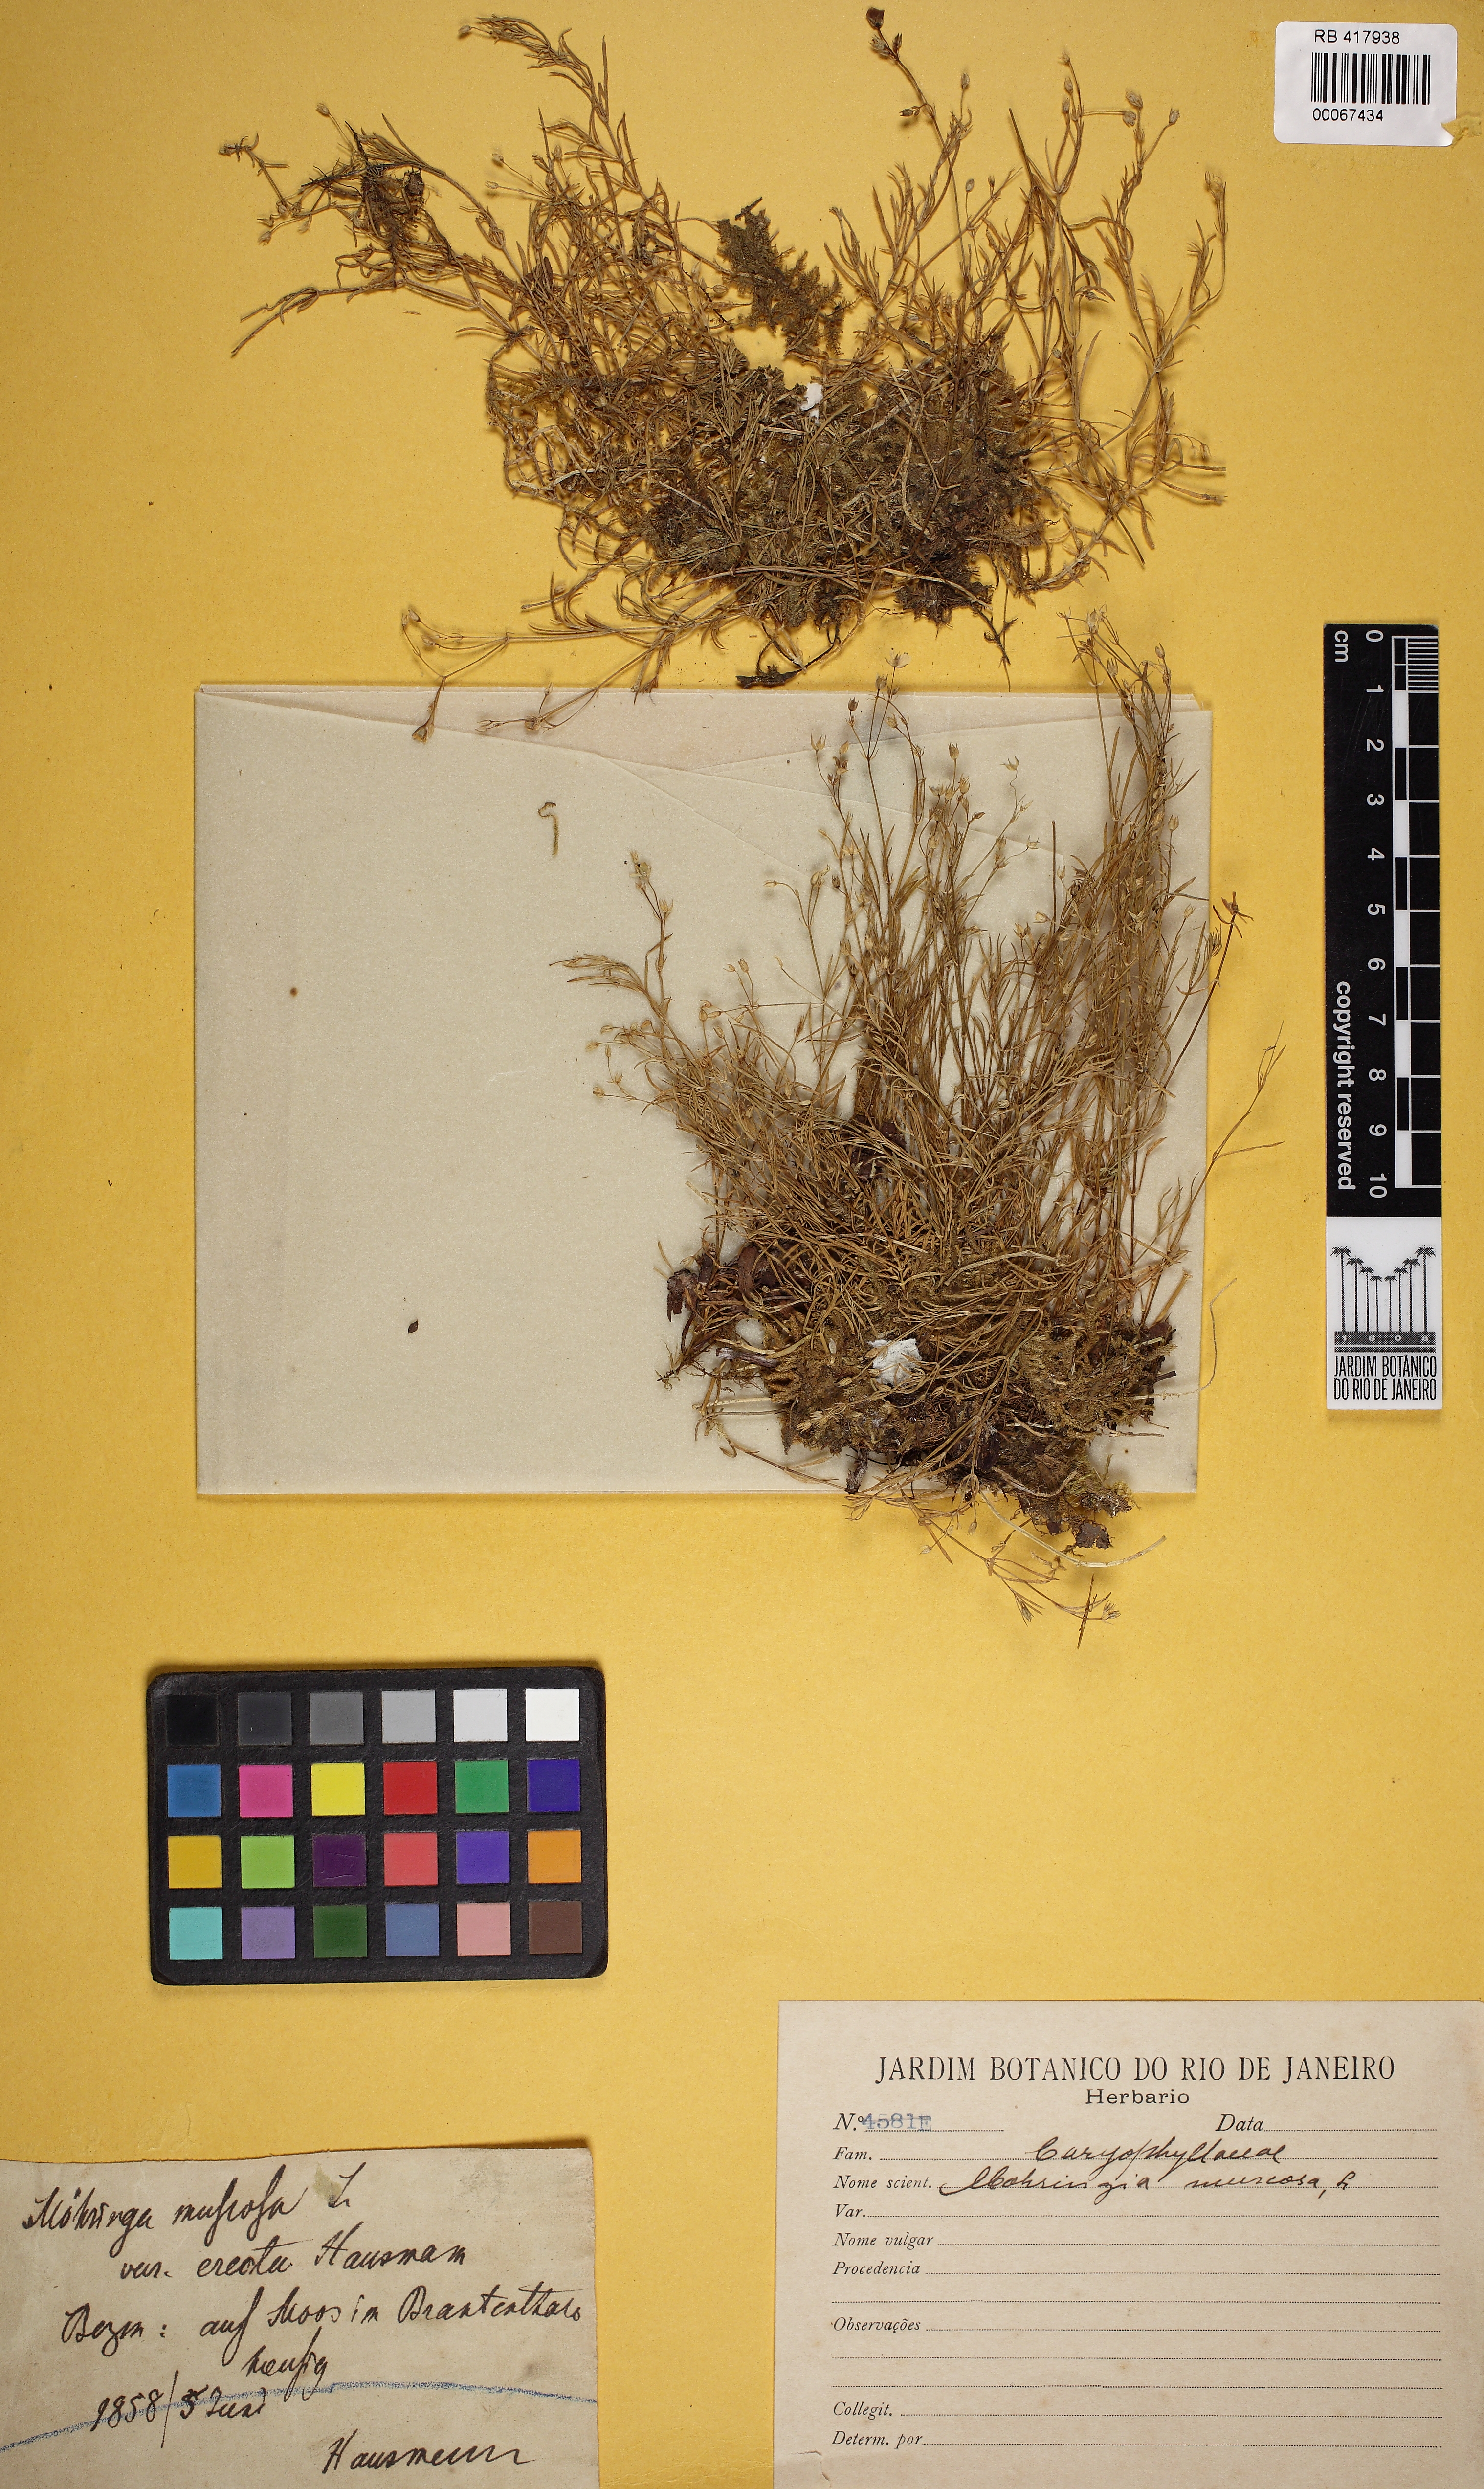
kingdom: Plantae
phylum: Tracheophyta
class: Magnoliopsida
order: Caryophyllales
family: Caryophyllaceae
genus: Moehringia
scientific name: Moehringia muscosa
